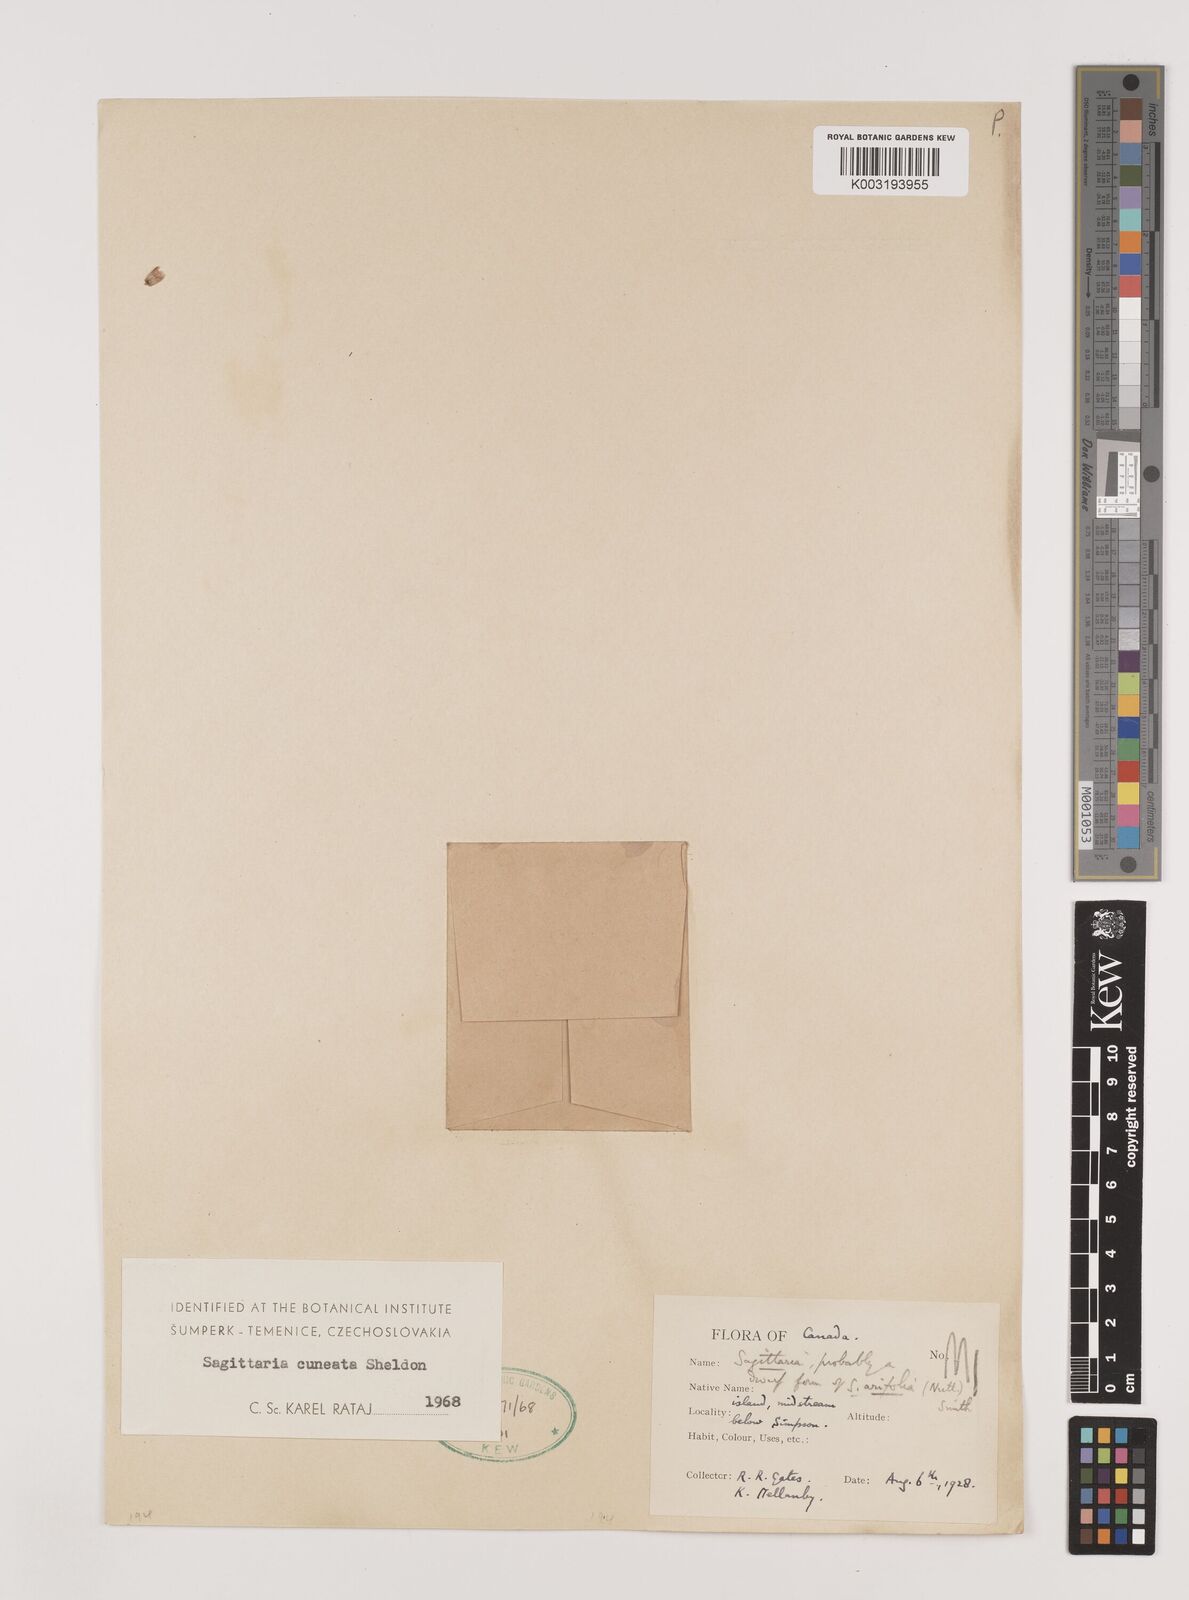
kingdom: Plantae
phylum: Tracheophyta
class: Liliopsida
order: Alismatales
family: Alismataceae
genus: Sagittaria
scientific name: Sagittaria cuneata
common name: Northern arrowhead
